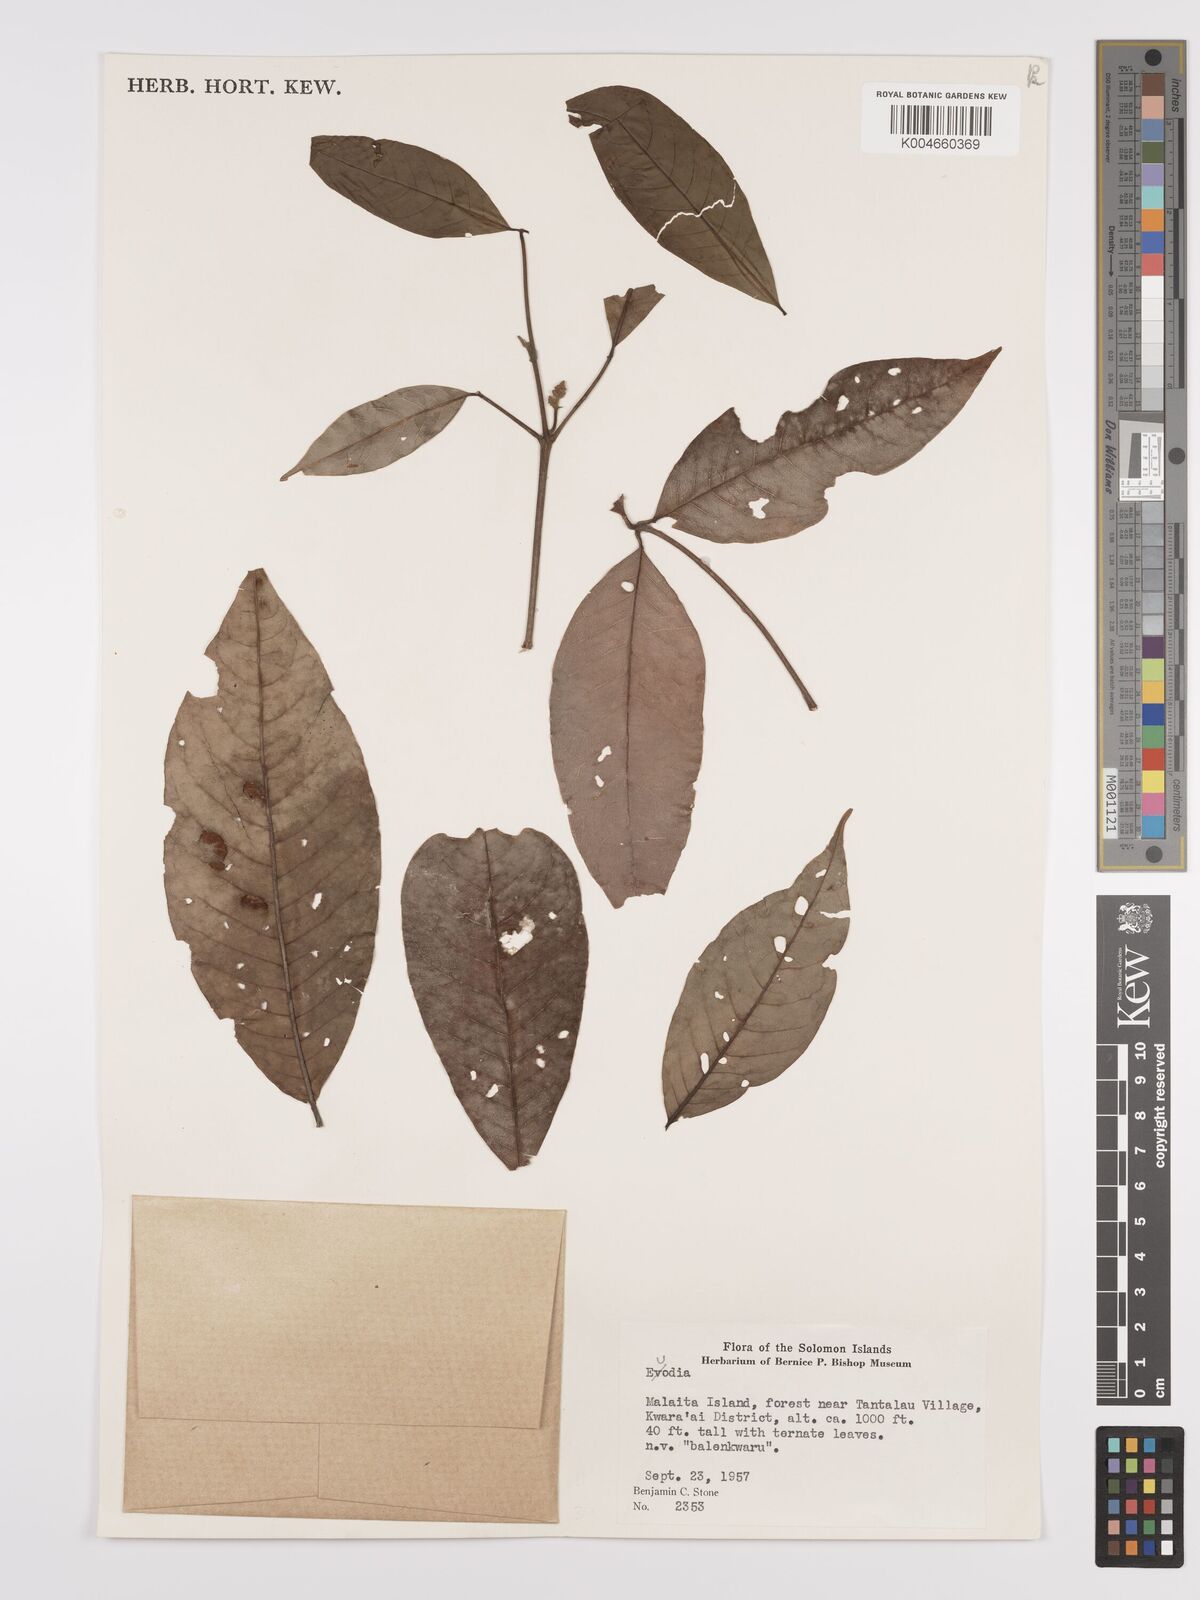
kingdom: Plantae
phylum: Tracheophyta
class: Magnoliopsida
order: Sapindales
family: Rutaceae
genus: Euodia
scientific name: Euodia
